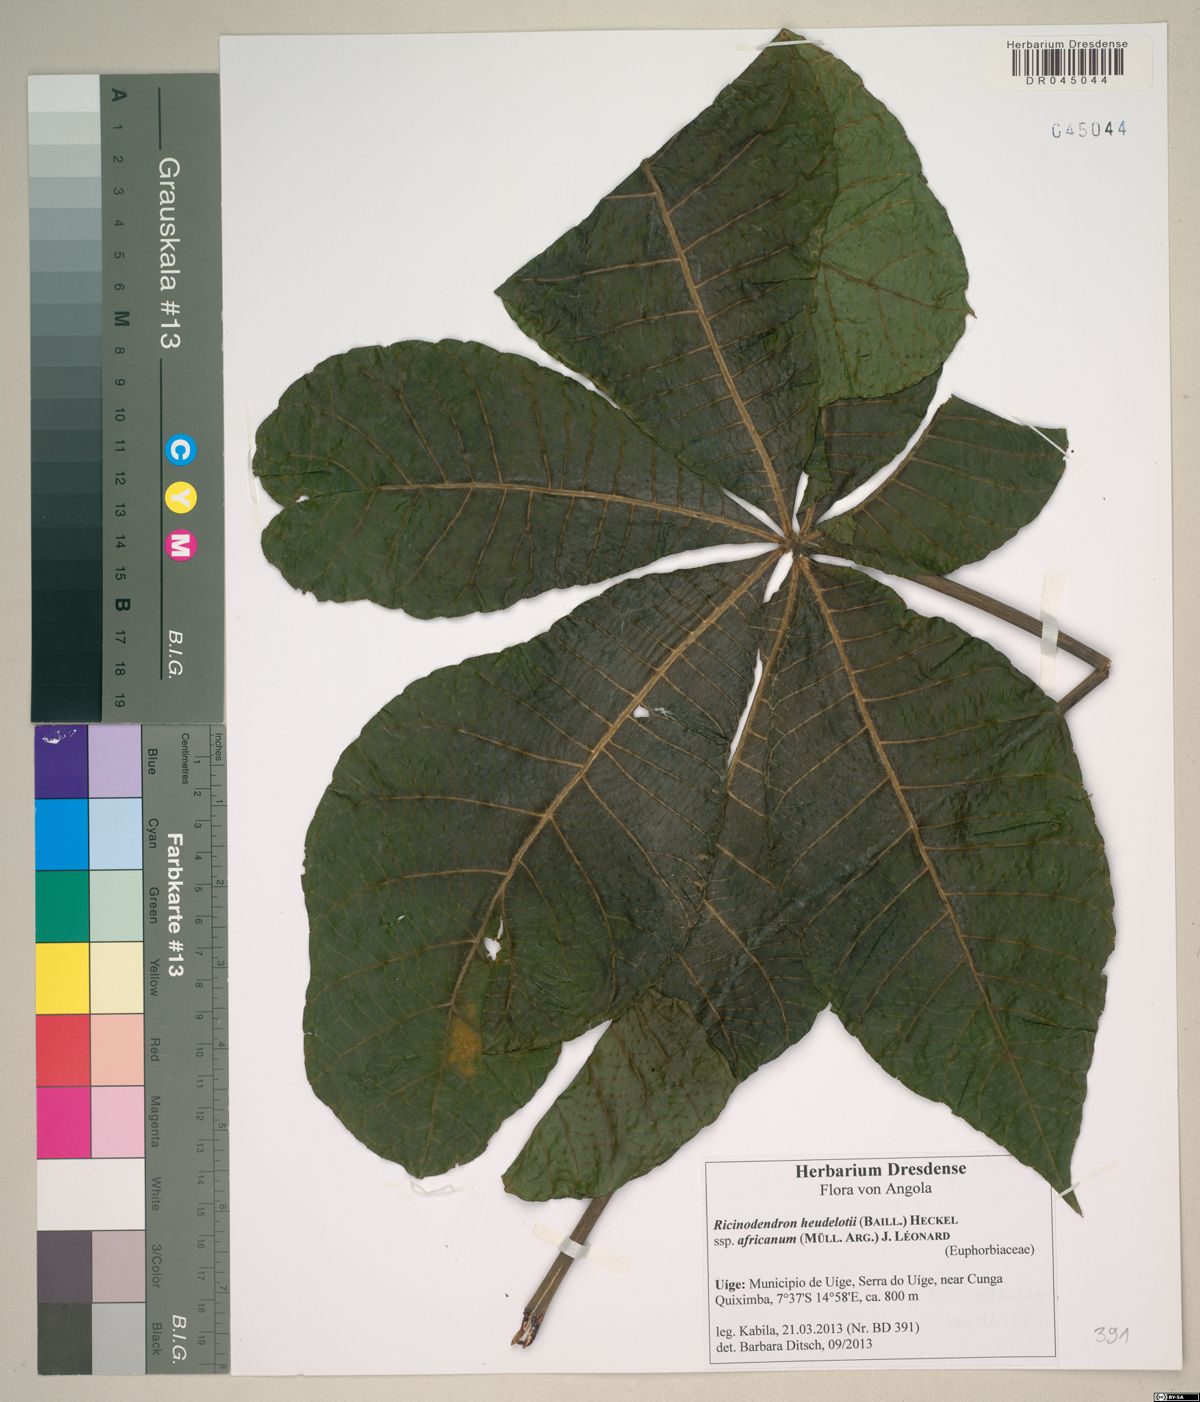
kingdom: Plantae
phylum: Tracheophyta
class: Magnoliopsida
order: Malpighiales
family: Euphorbiaceae
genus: Ricinodendron
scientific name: Ricinodendron heudelotii
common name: African nut-tree
